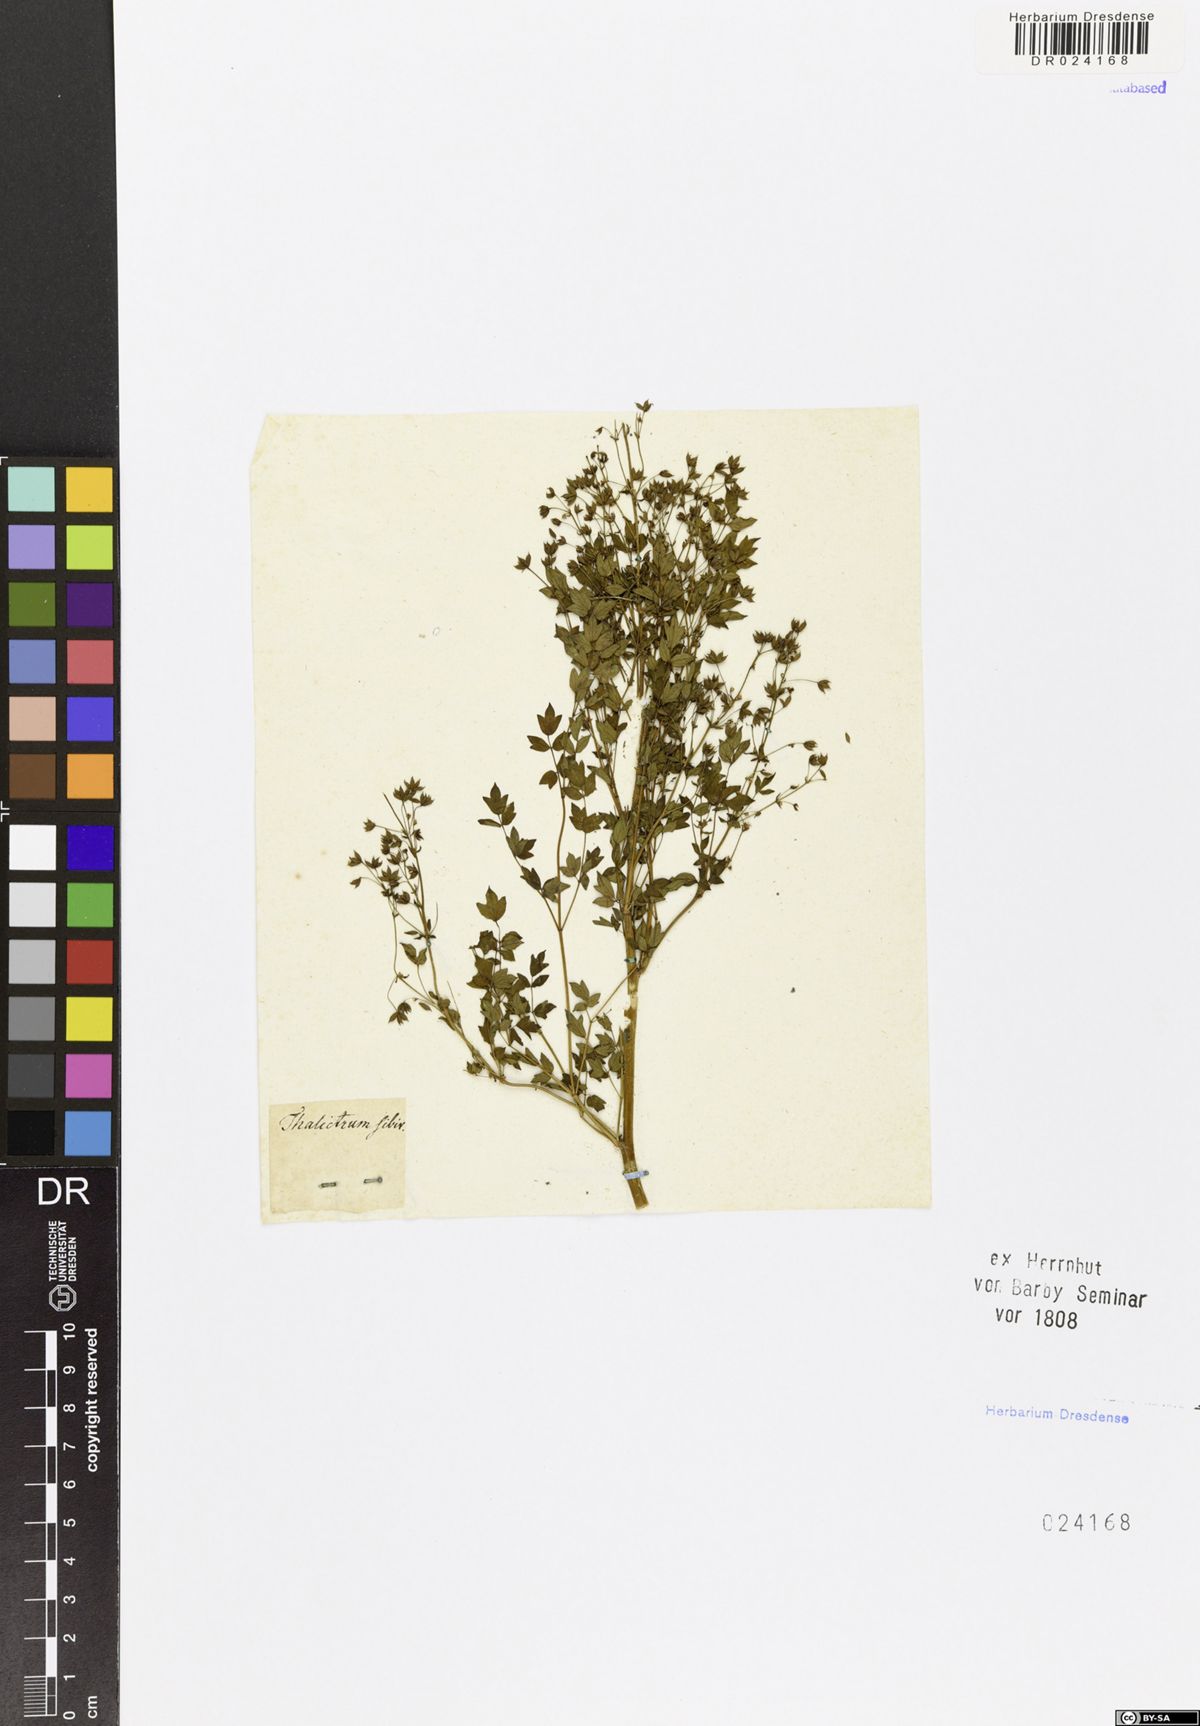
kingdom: Plantae
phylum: Tracheophyta
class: Magnoliopsida
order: Ranunculales
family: Ranunculaceae
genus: Thalictrum
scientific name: Thalictrum minus
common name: Lesser meadow-rue
